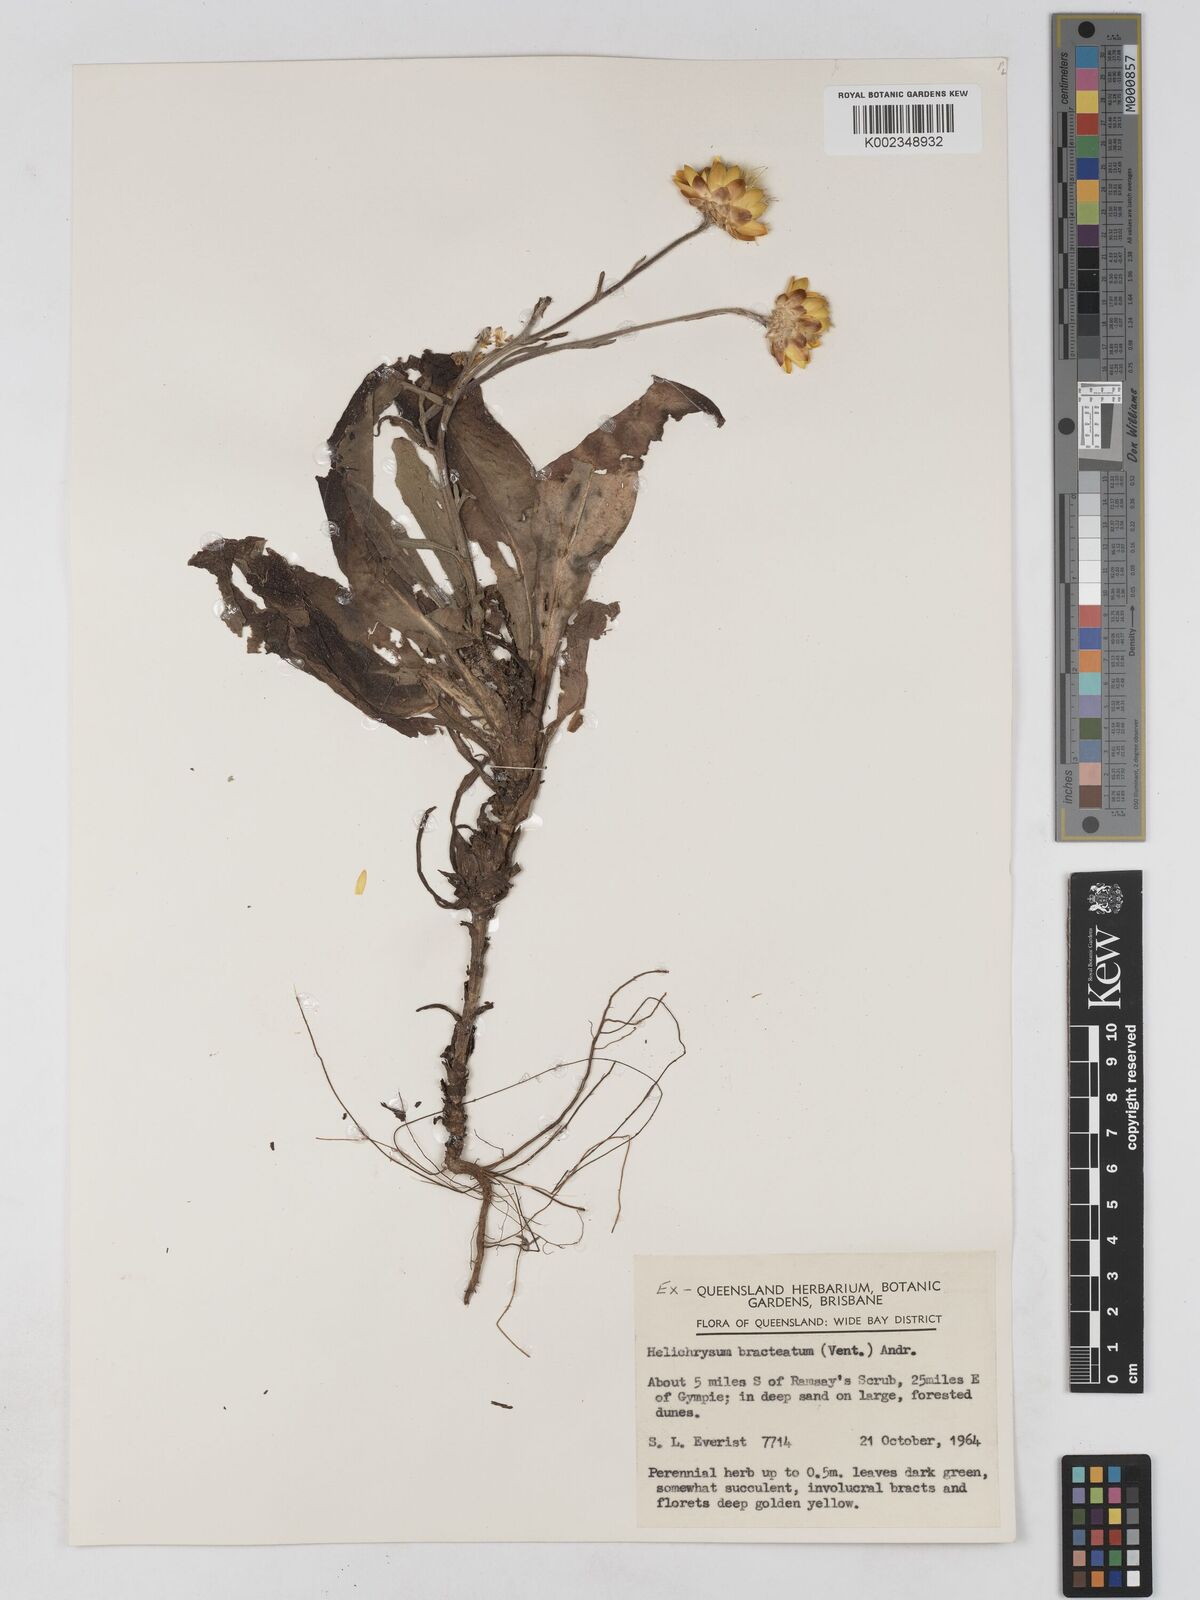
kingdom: Plantae
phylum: Tracheophyta
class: Magnoliopsida
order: Asterales
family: Asteraceae
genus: Xerochrysum
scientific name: Xerochrysum bracteatum
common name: Bracted strawflower
